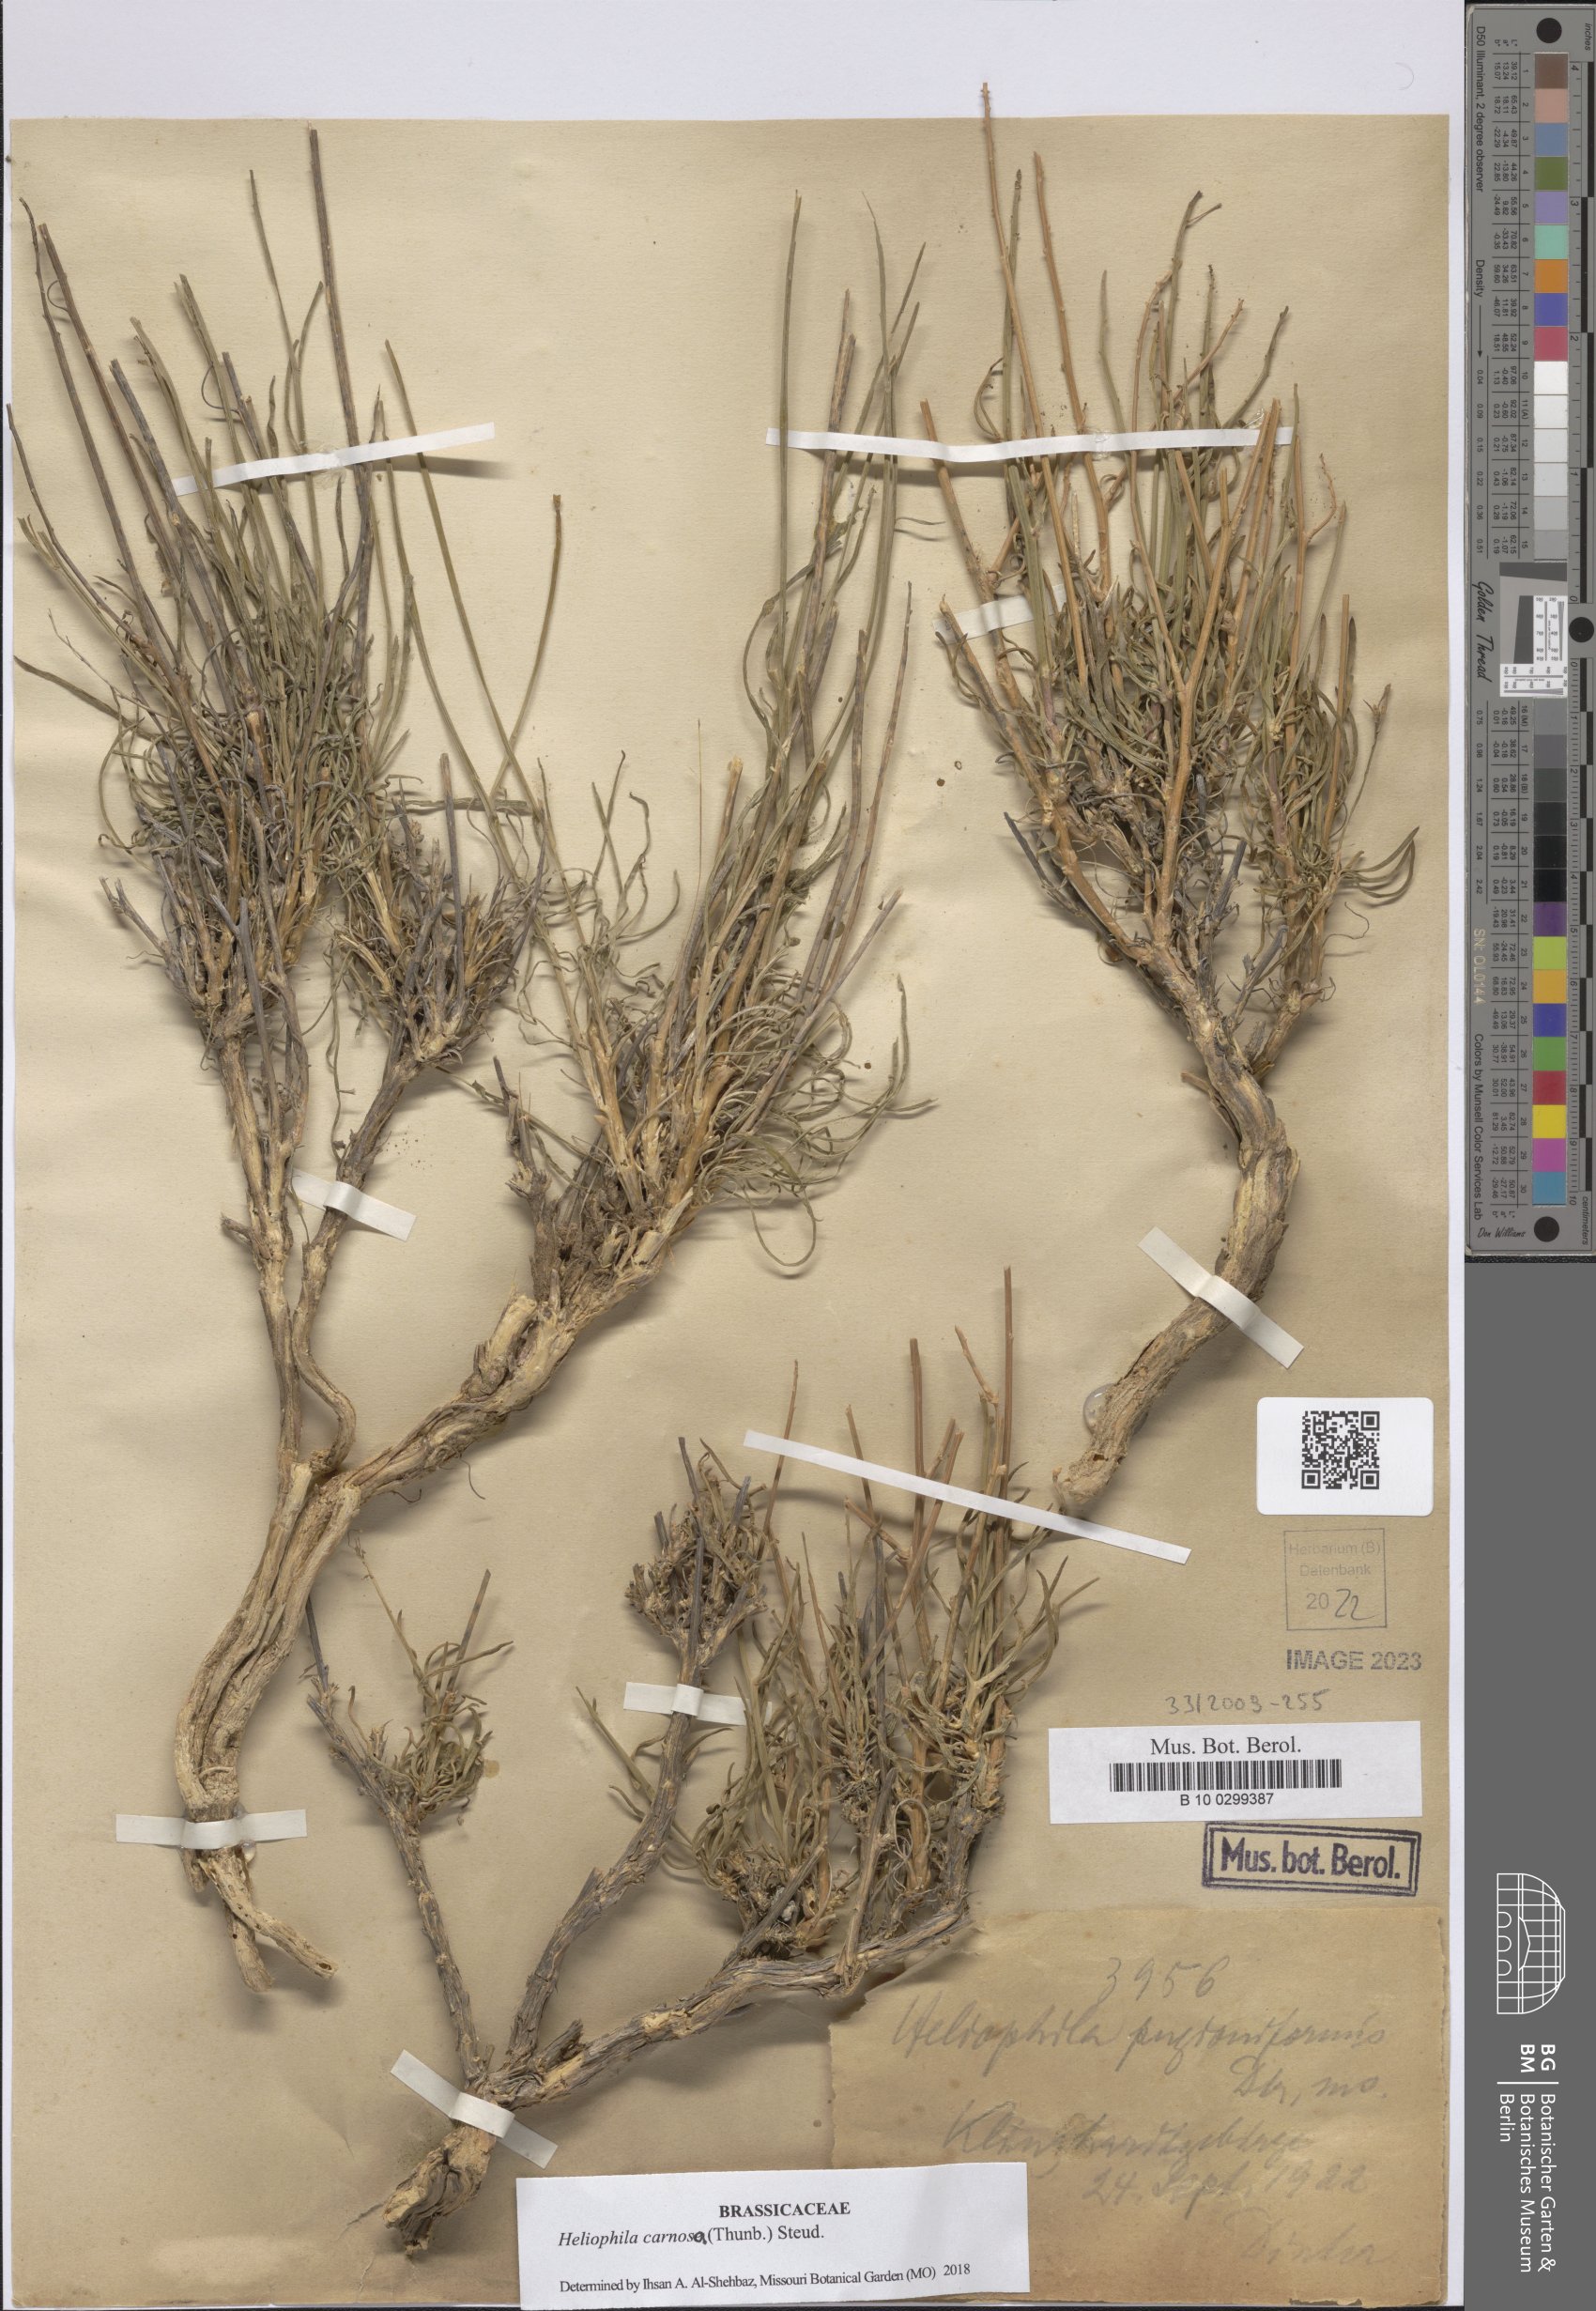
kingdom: Plantae
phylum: Tracheophyta
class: Magnoliopsida
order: Brassicales
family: Brassicaceae
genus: Heliophila
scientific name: Heliophila carnosa
